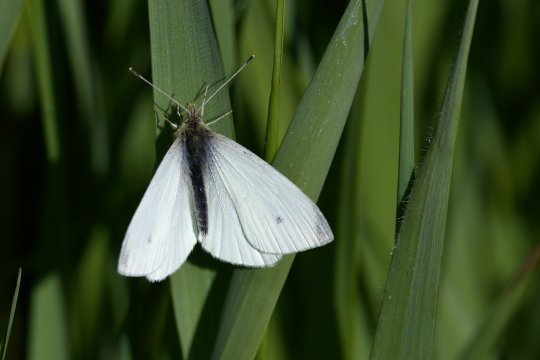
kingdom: Animalia
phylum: Arthropoda
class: Insecta
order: Lepidoptera
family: Pieridae
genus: Pieris
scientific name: Pieris rapae
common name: Cabbage White
